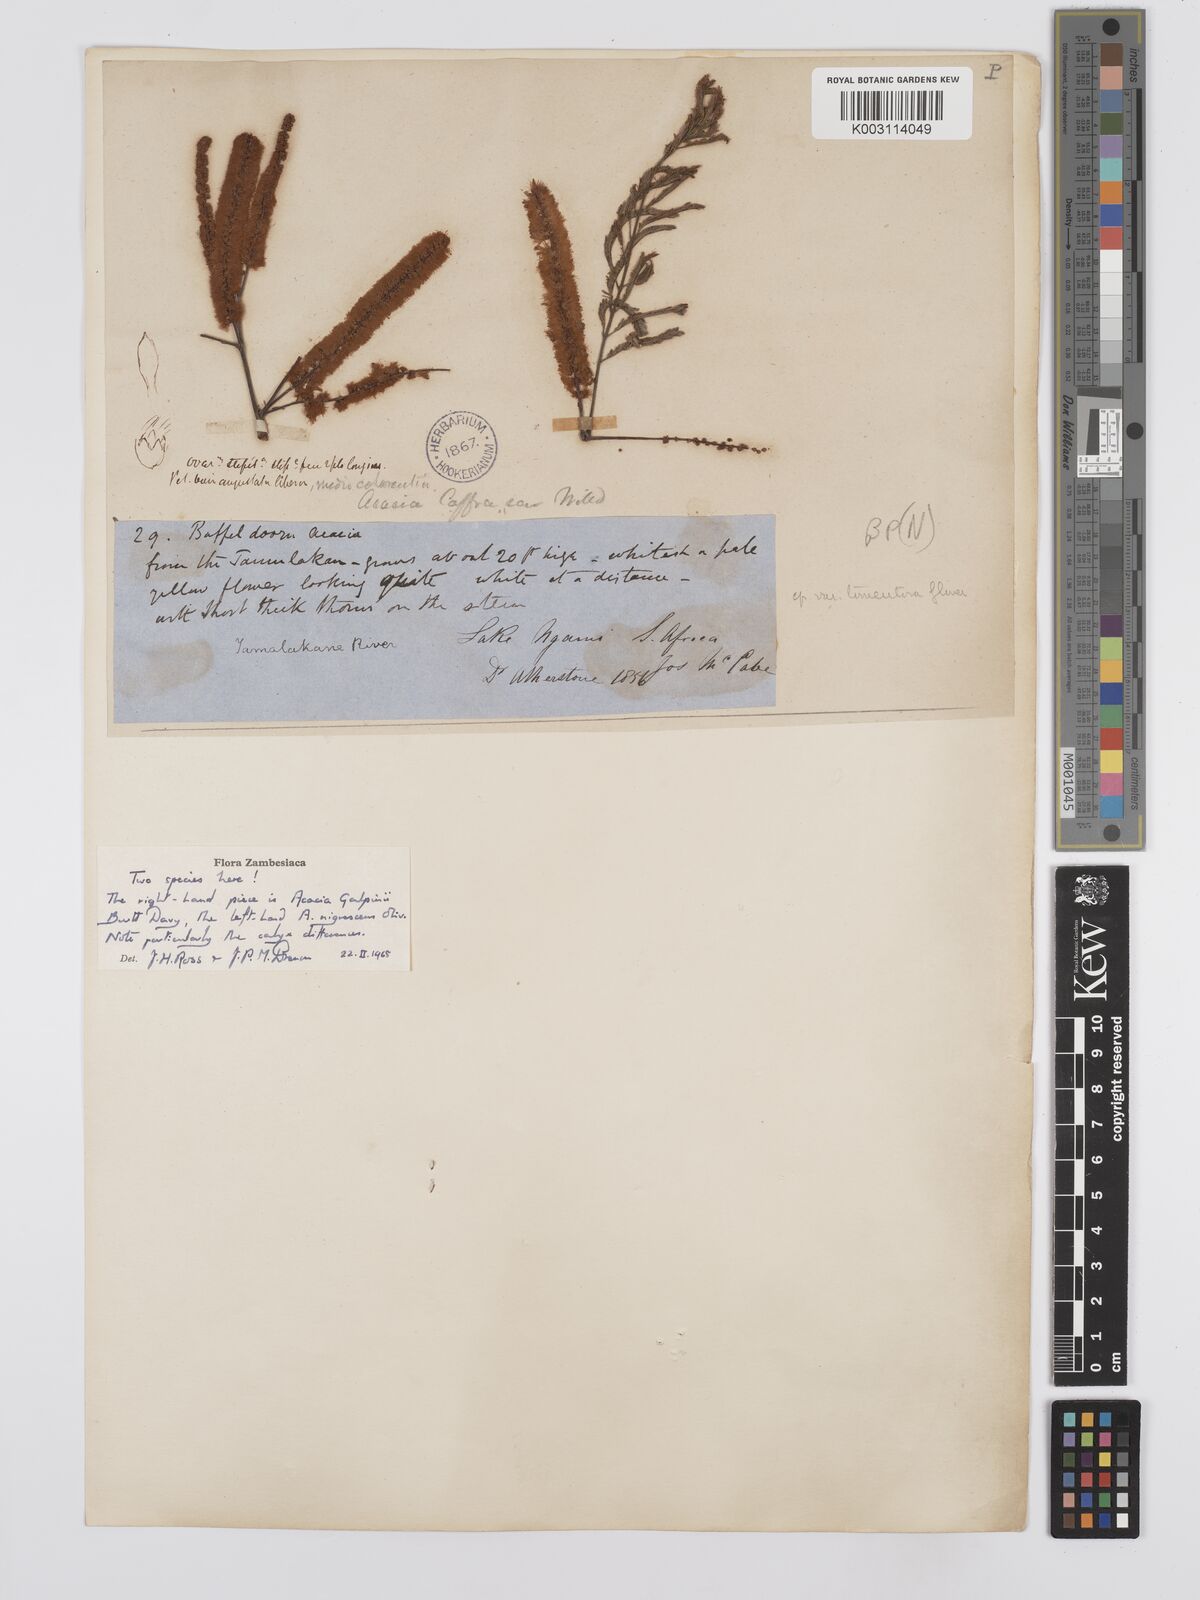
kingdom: Plantae
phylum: Tracheophyta
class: Magnoliopsida
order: Fabales
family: Fabaceae
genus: Senegalia
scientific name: Senegalia galpinii
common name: Monkey-thorn
